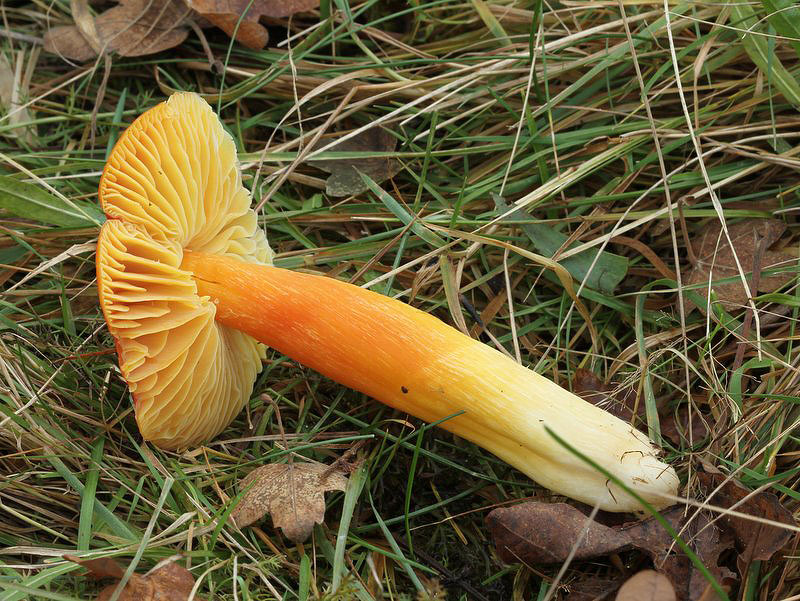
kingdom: Fungi
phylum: Basidiomycota
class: Agaricomycetes
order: Agaricales
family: Hygrophoraceae
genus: Hygrocybe
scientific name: Hygrocybe punicea
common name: skarlagen-vokshat
